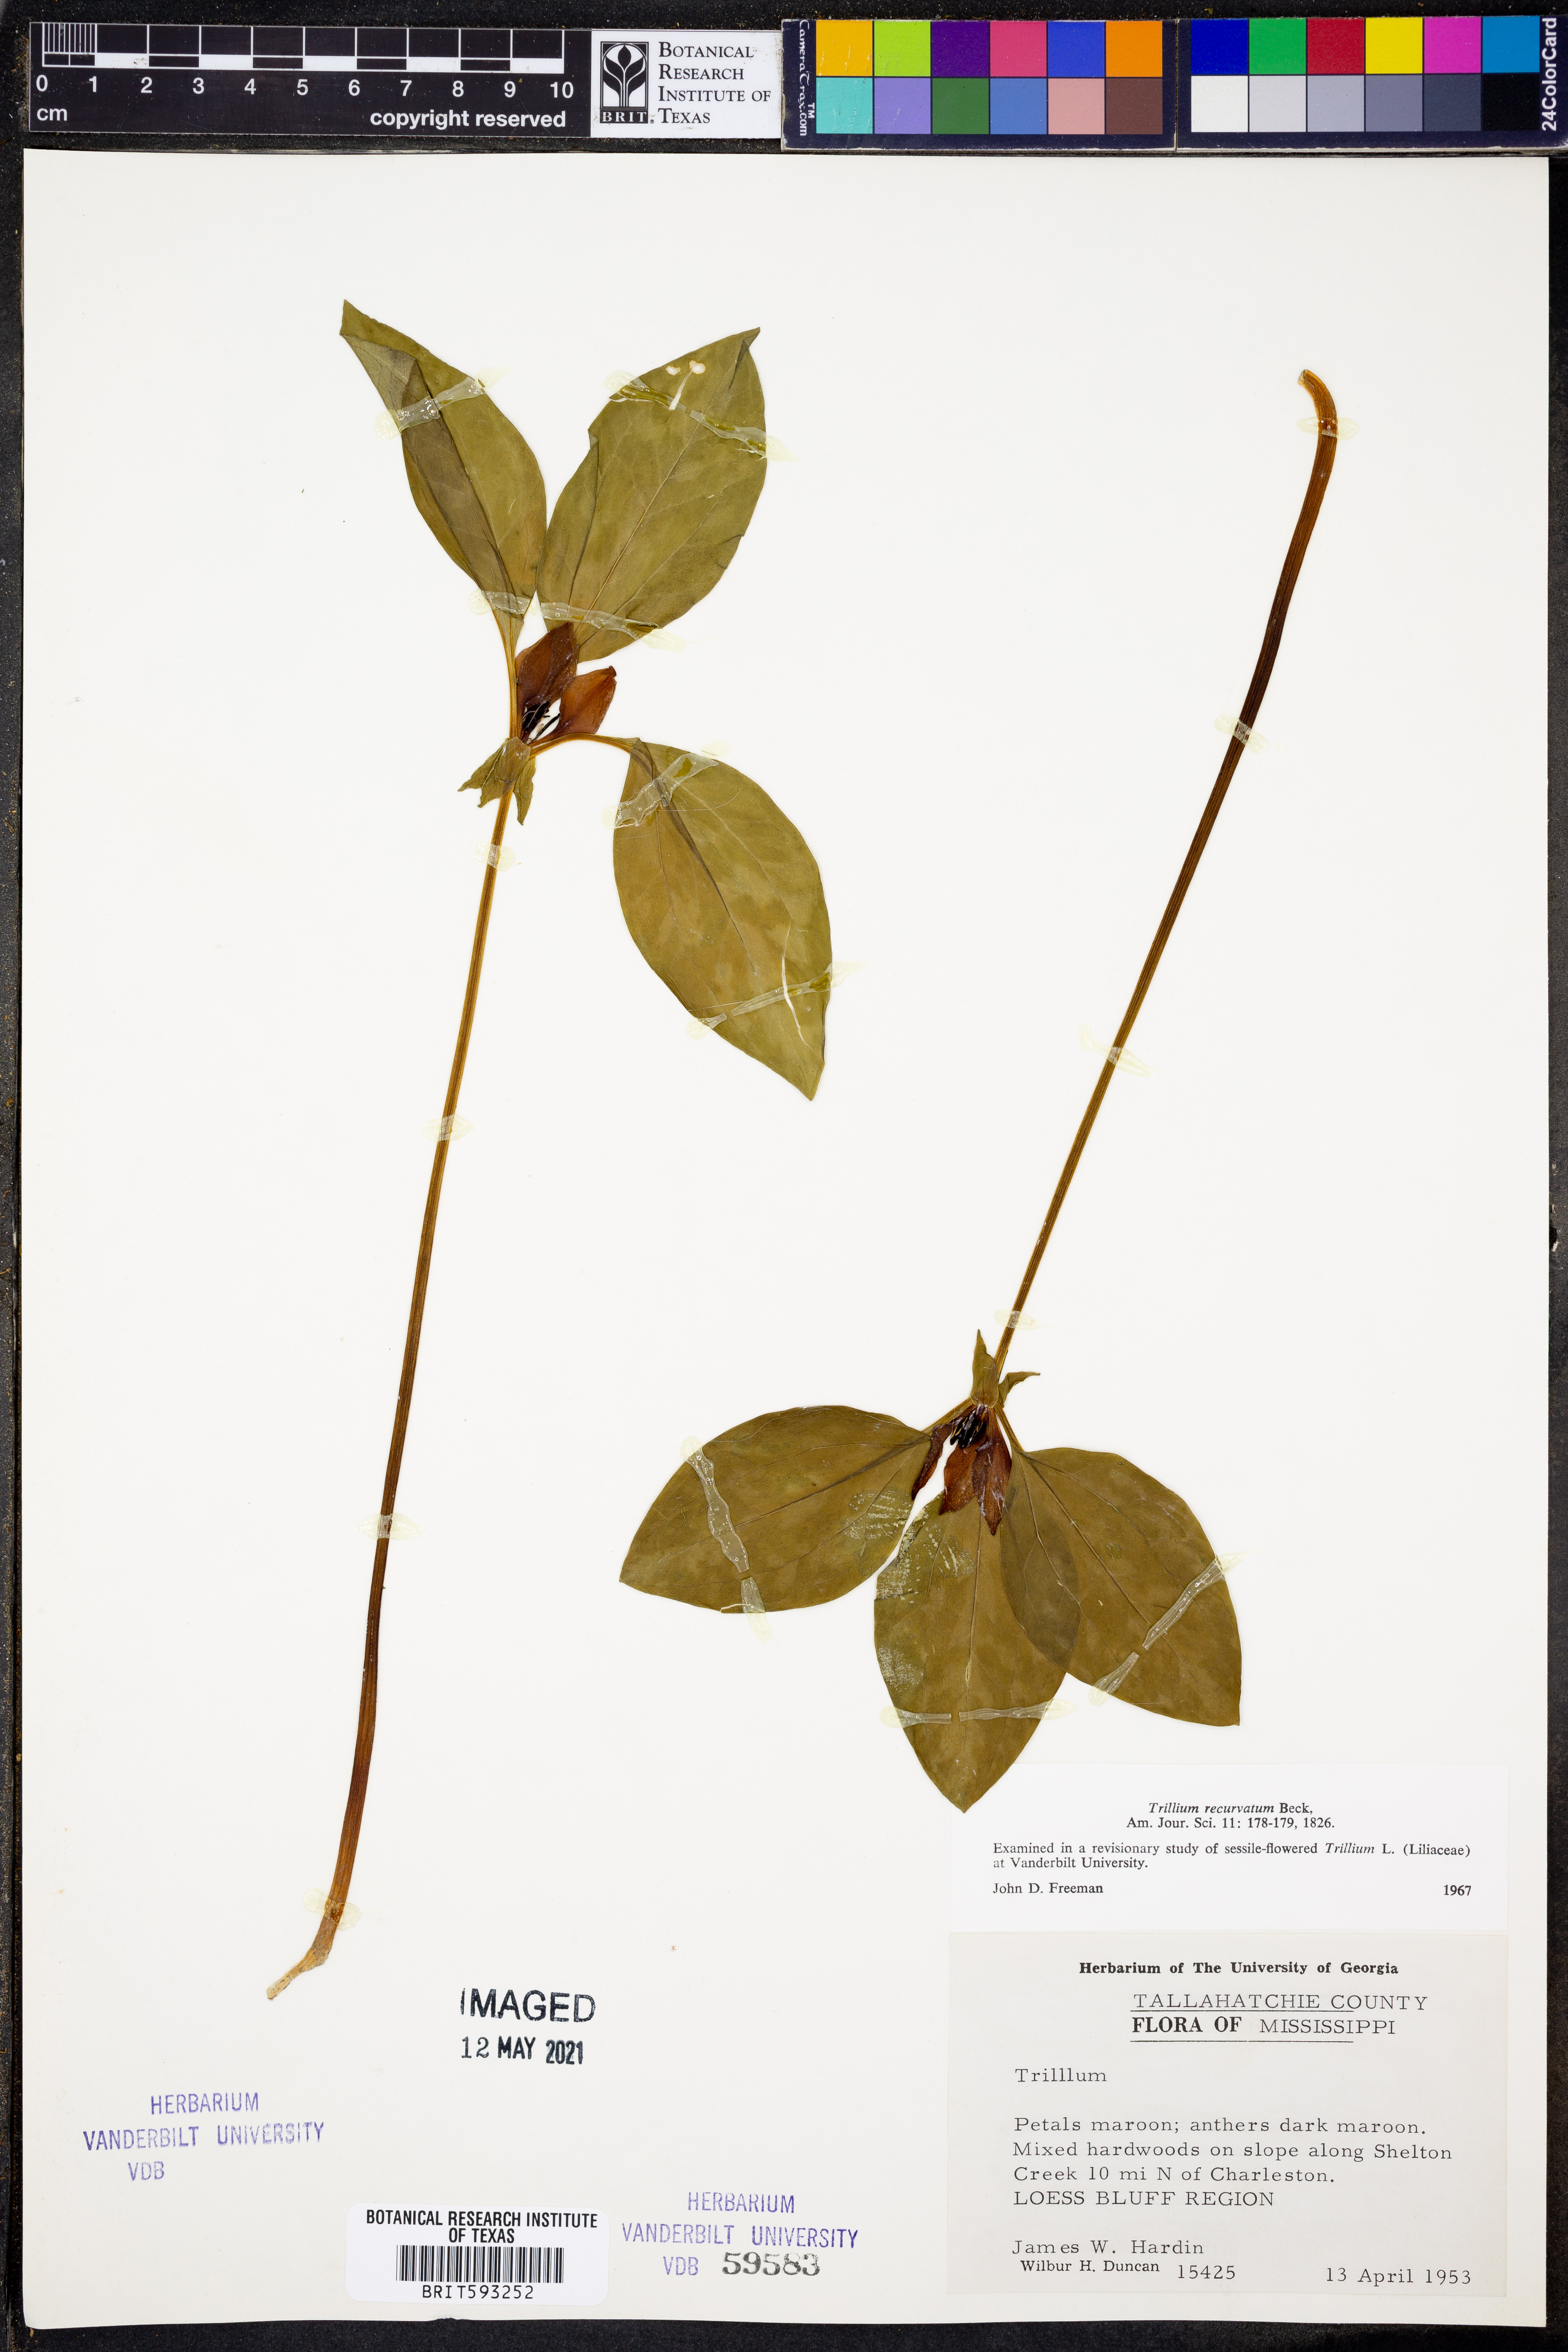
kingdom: Plantae
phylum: Tracheophyta
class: Liliopsida
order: Liliales
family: Melanthiaceae
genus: Trillium
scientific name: Trillium recurvatum
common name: Bloody butcher
